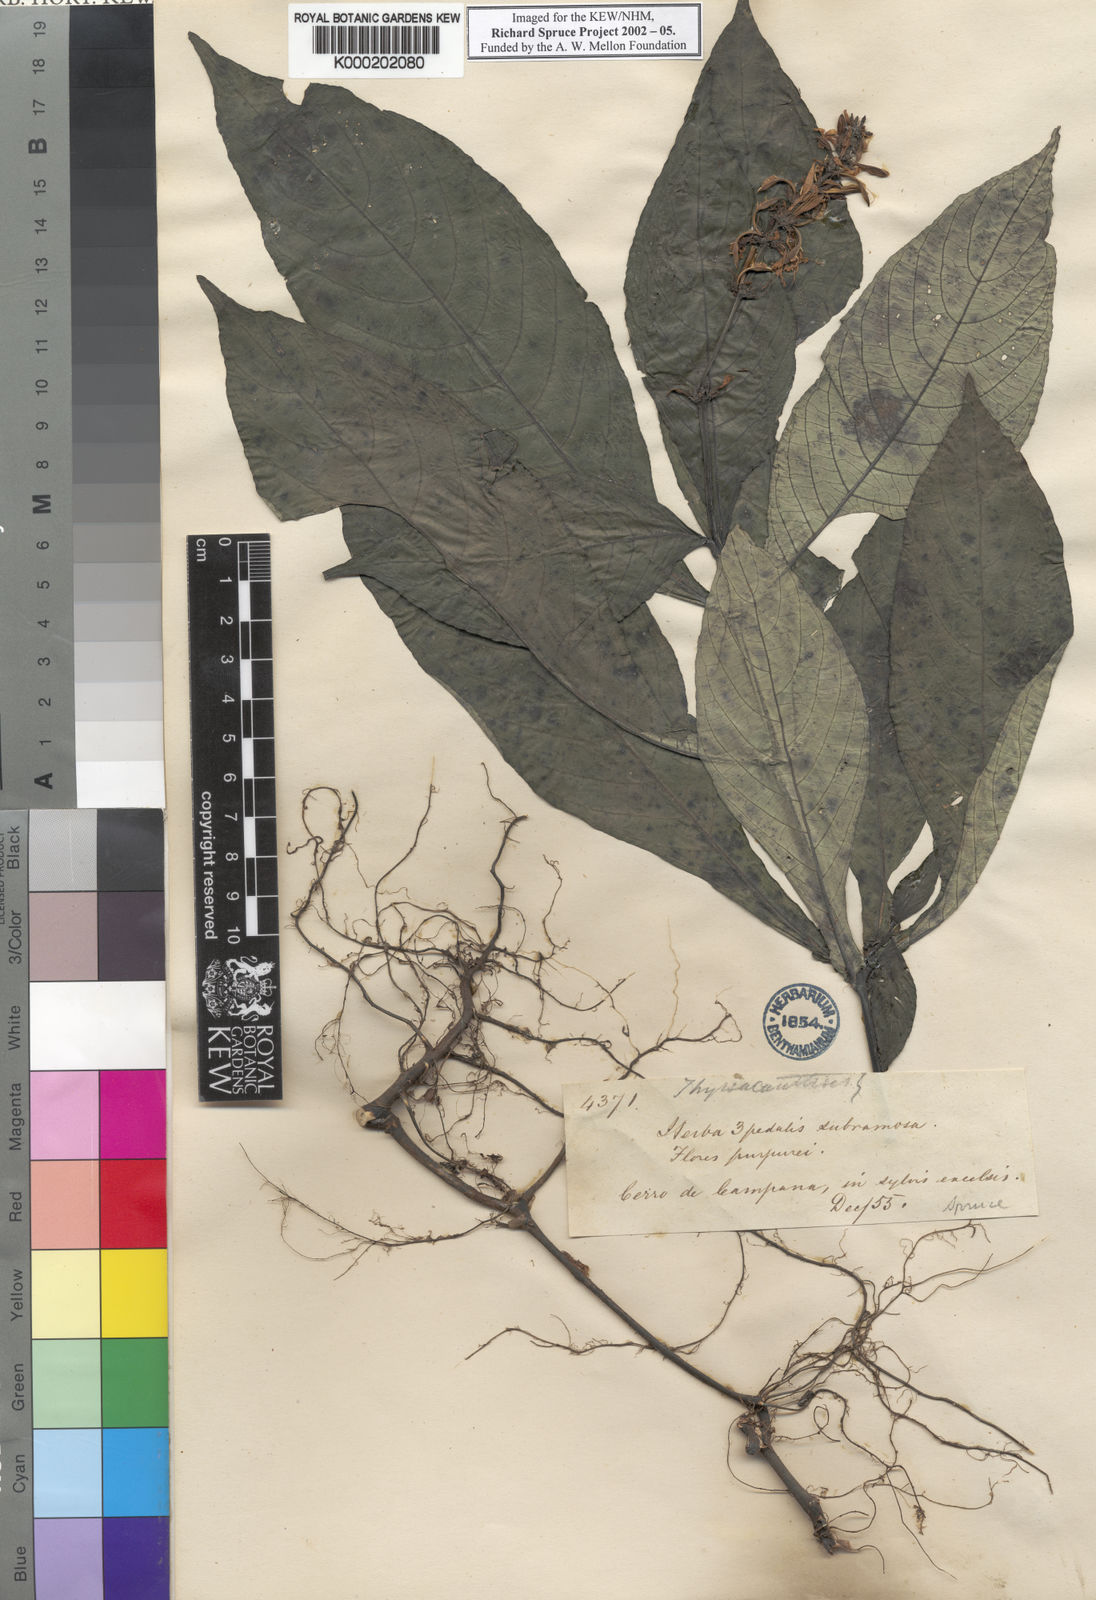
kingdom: Plantae
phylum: Tracheophyta
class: Magnoliopsida
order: Lamiales
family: Acanthaceae
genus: Pseuderanthemum
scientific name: Pseuderanthemum hookerianum
